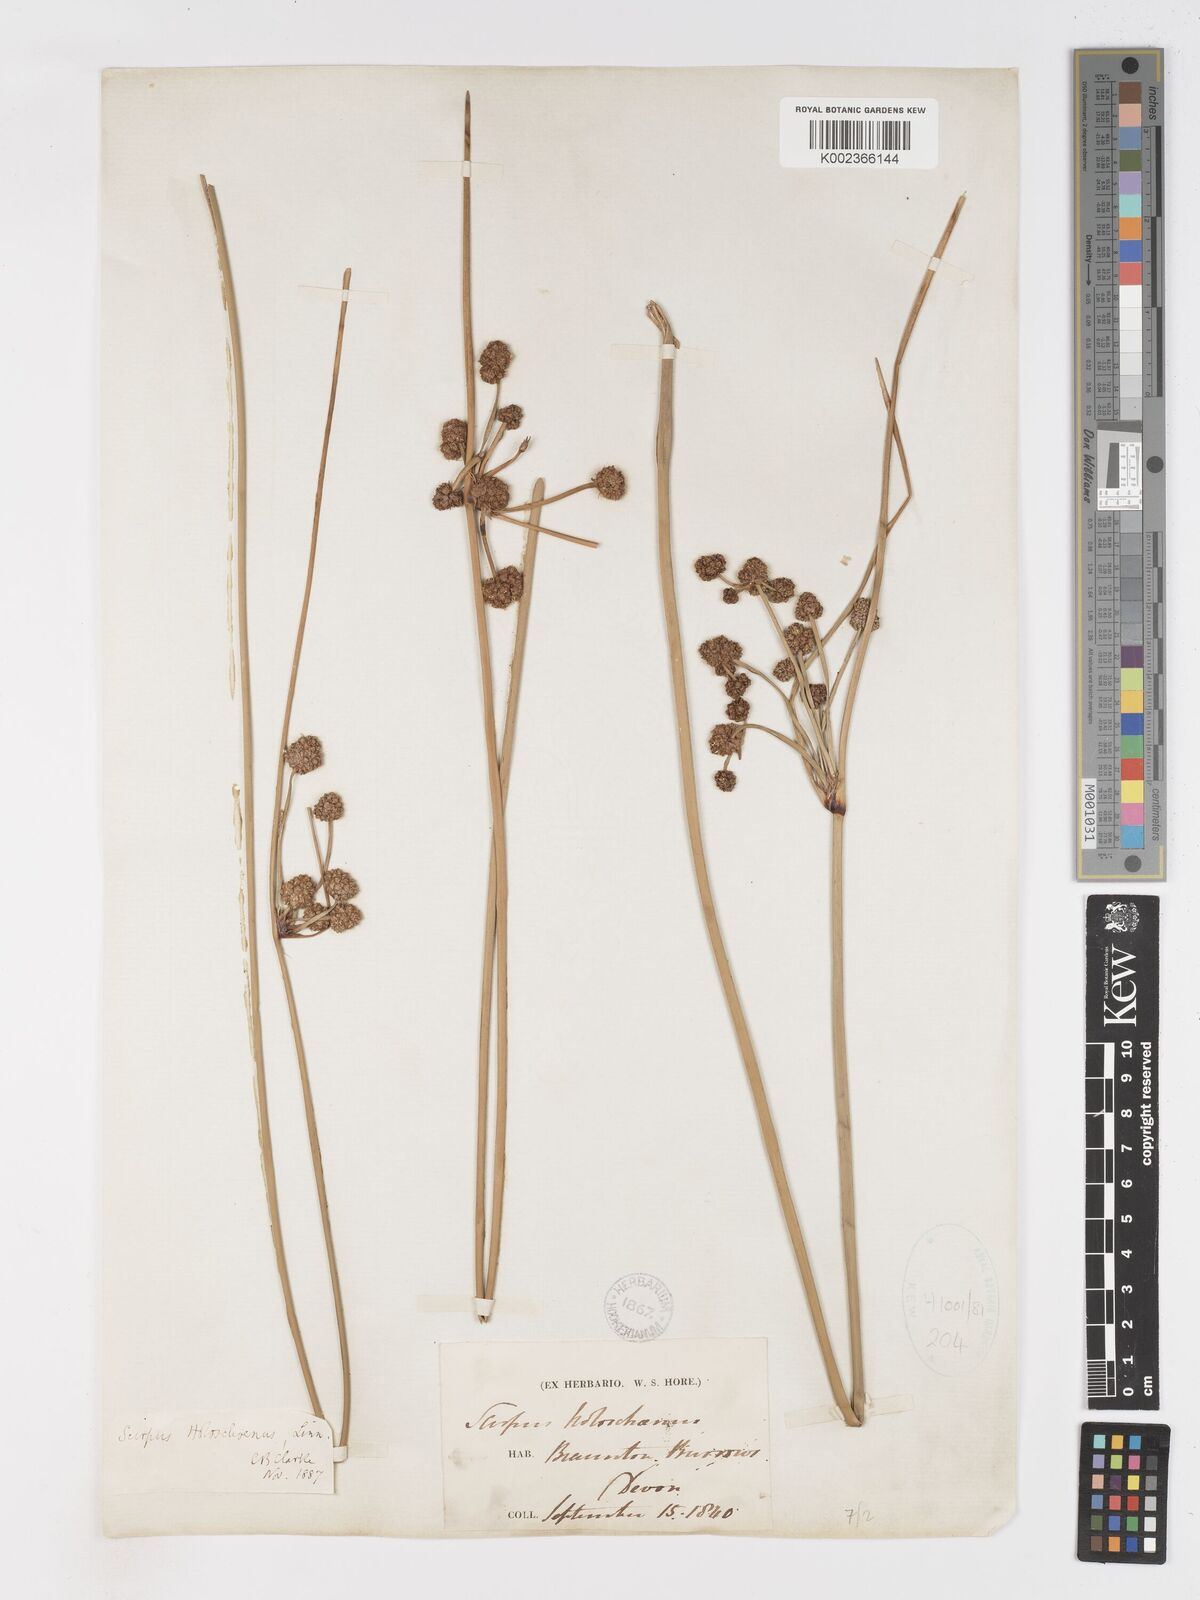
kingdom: Plantae
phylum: Tracheophyta
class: Liliopsida
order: Poales
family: Cyperaceae
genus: Scirpoides
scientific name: Scirpoides holoschoenus
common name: Round-headed club-rush
